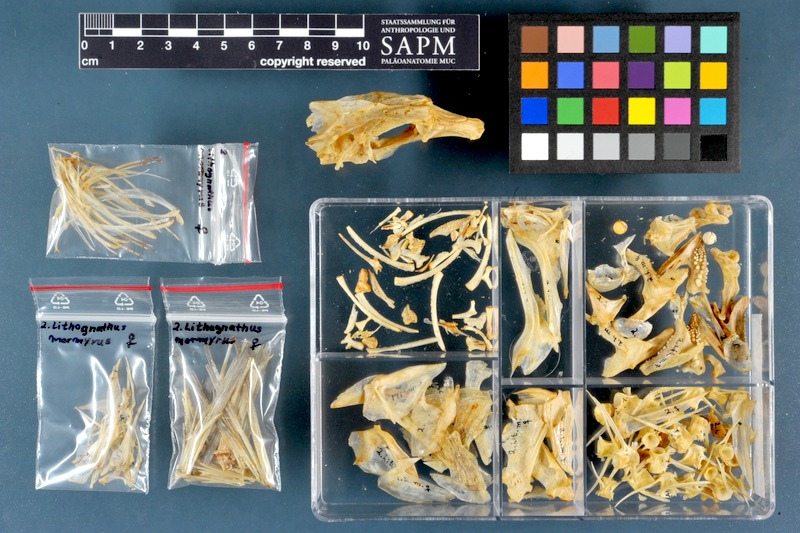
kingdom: Animalia
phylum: Chordata
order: Perciformes
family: Sparidae
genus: Lithognathus
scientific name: Lithognathus mormyrus
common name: Sand steenbras
